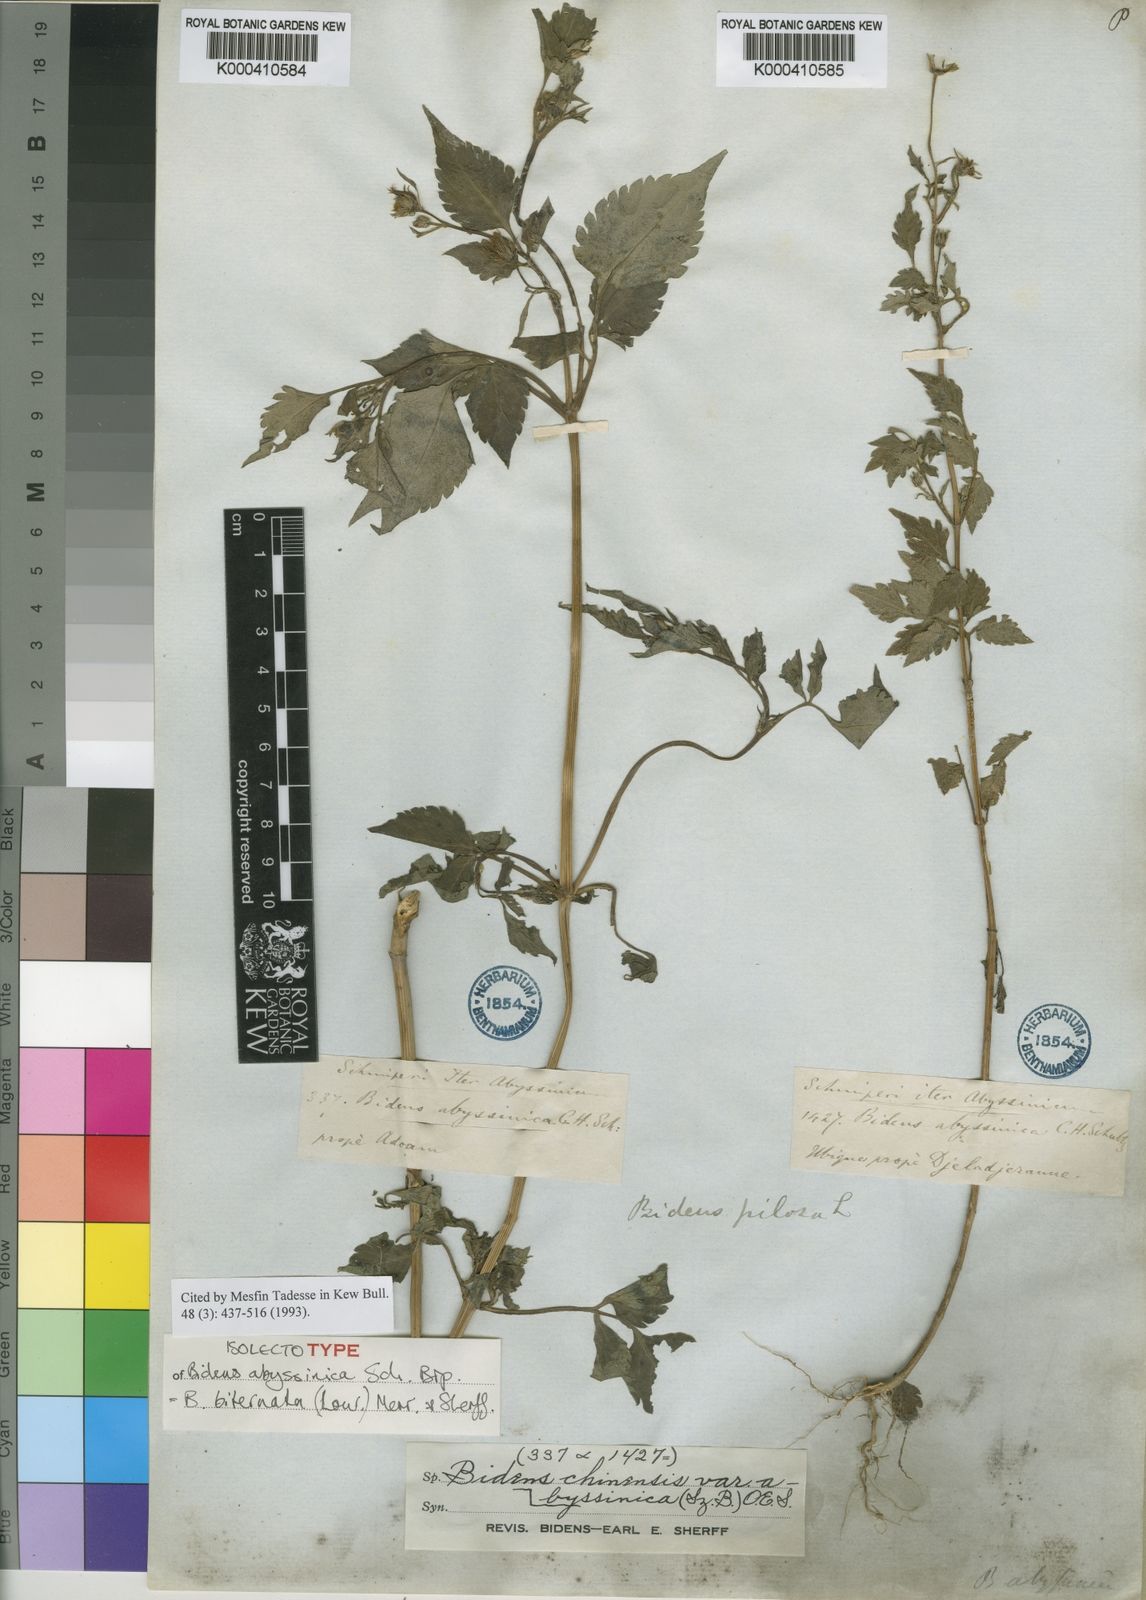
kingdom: Plantae
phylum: Tracheophyta
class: Magnoliopsida
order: Asterales
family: Asteraceae
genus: Bidens
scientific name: Bidens biternata
